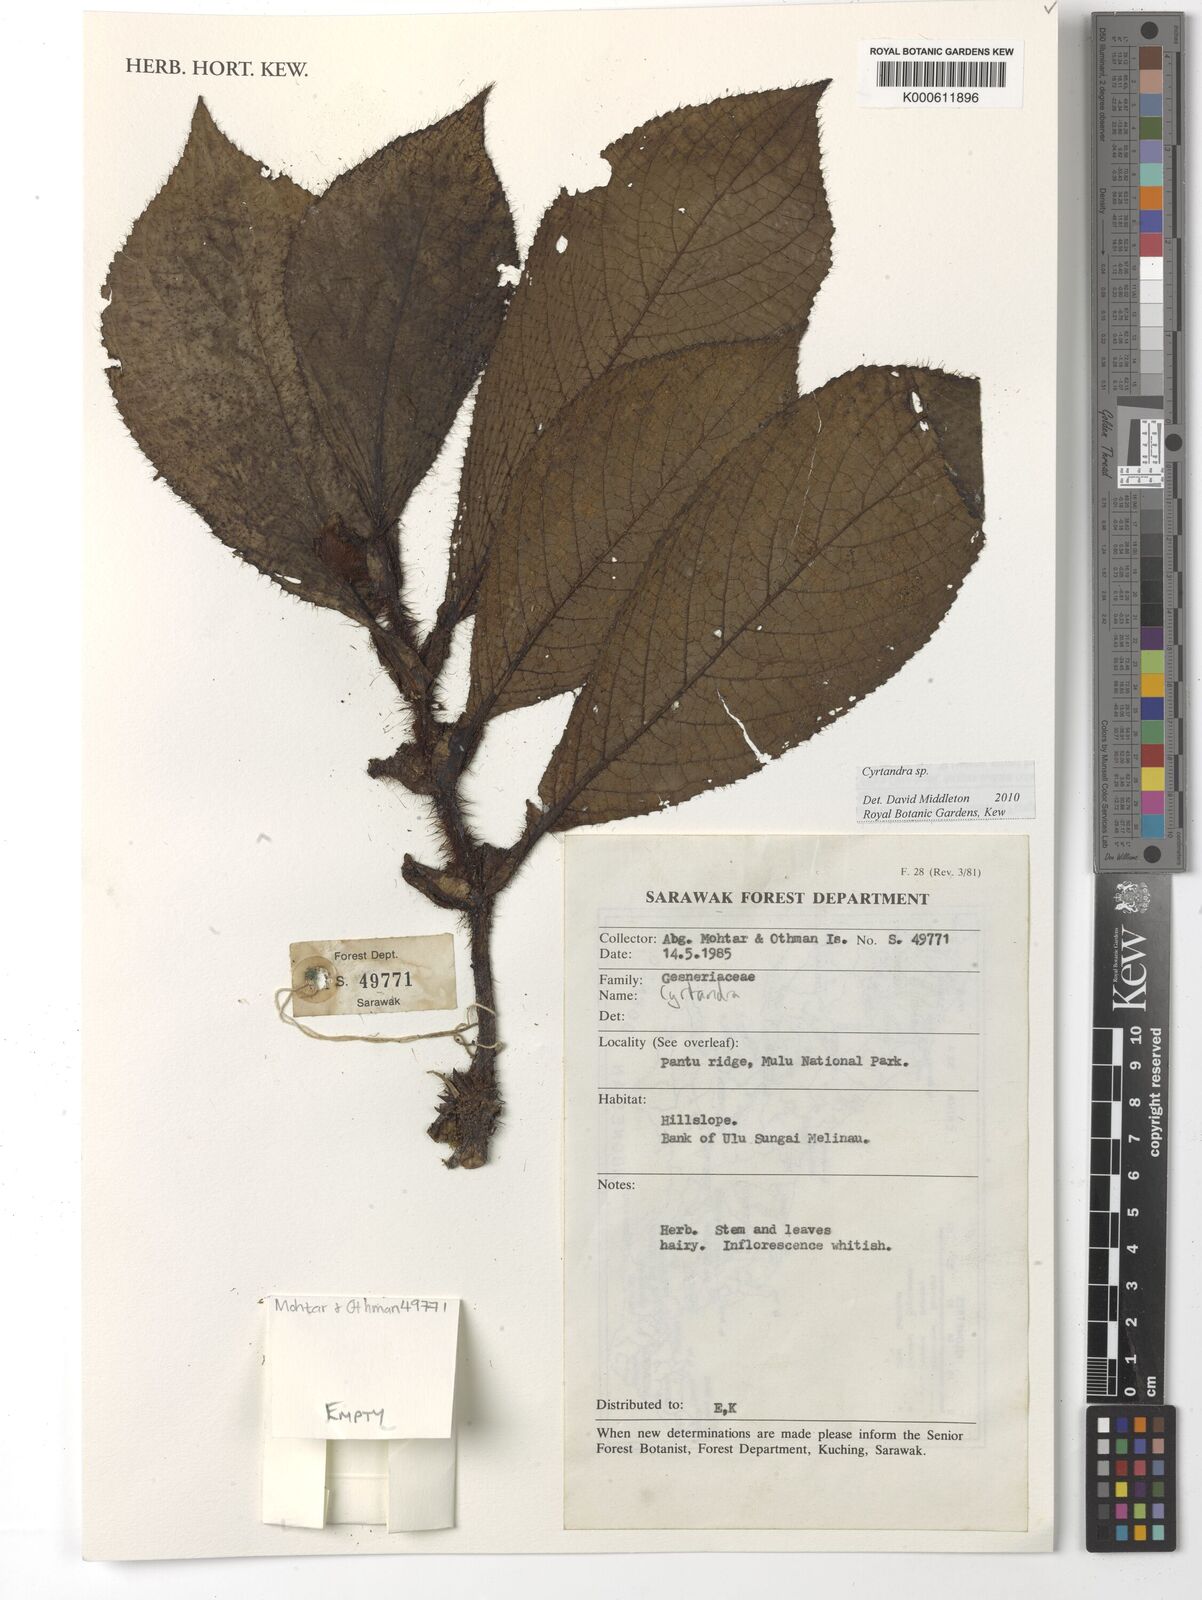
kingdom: Plantae
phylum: Tracheophyta
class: Magnoliopsida
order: Lamiales
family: Gesneriaceae
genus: Cyrtandra
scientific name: Cyrtandra
